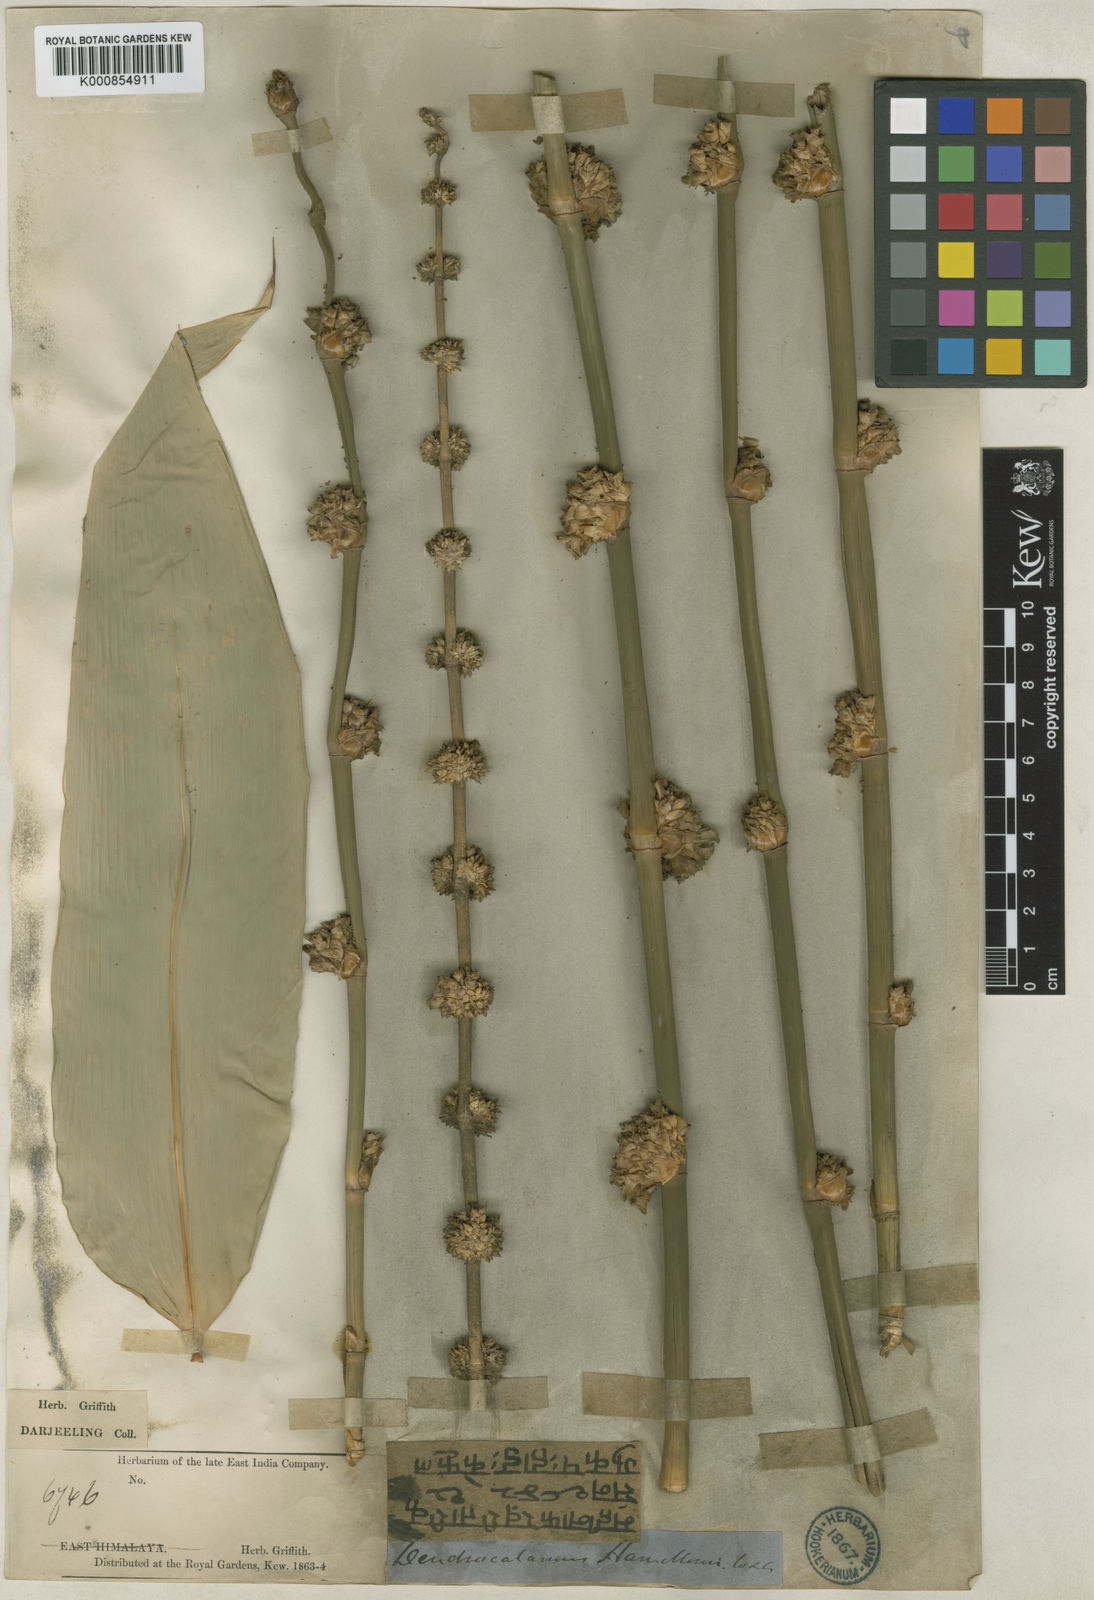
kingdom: Plantae
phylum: Tracheophyta
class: Liliopsida
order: Poales
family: Poaceae
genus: Dendrocalamus
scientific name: Dendrocalamus hamiltonii
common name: Tama bamboo
